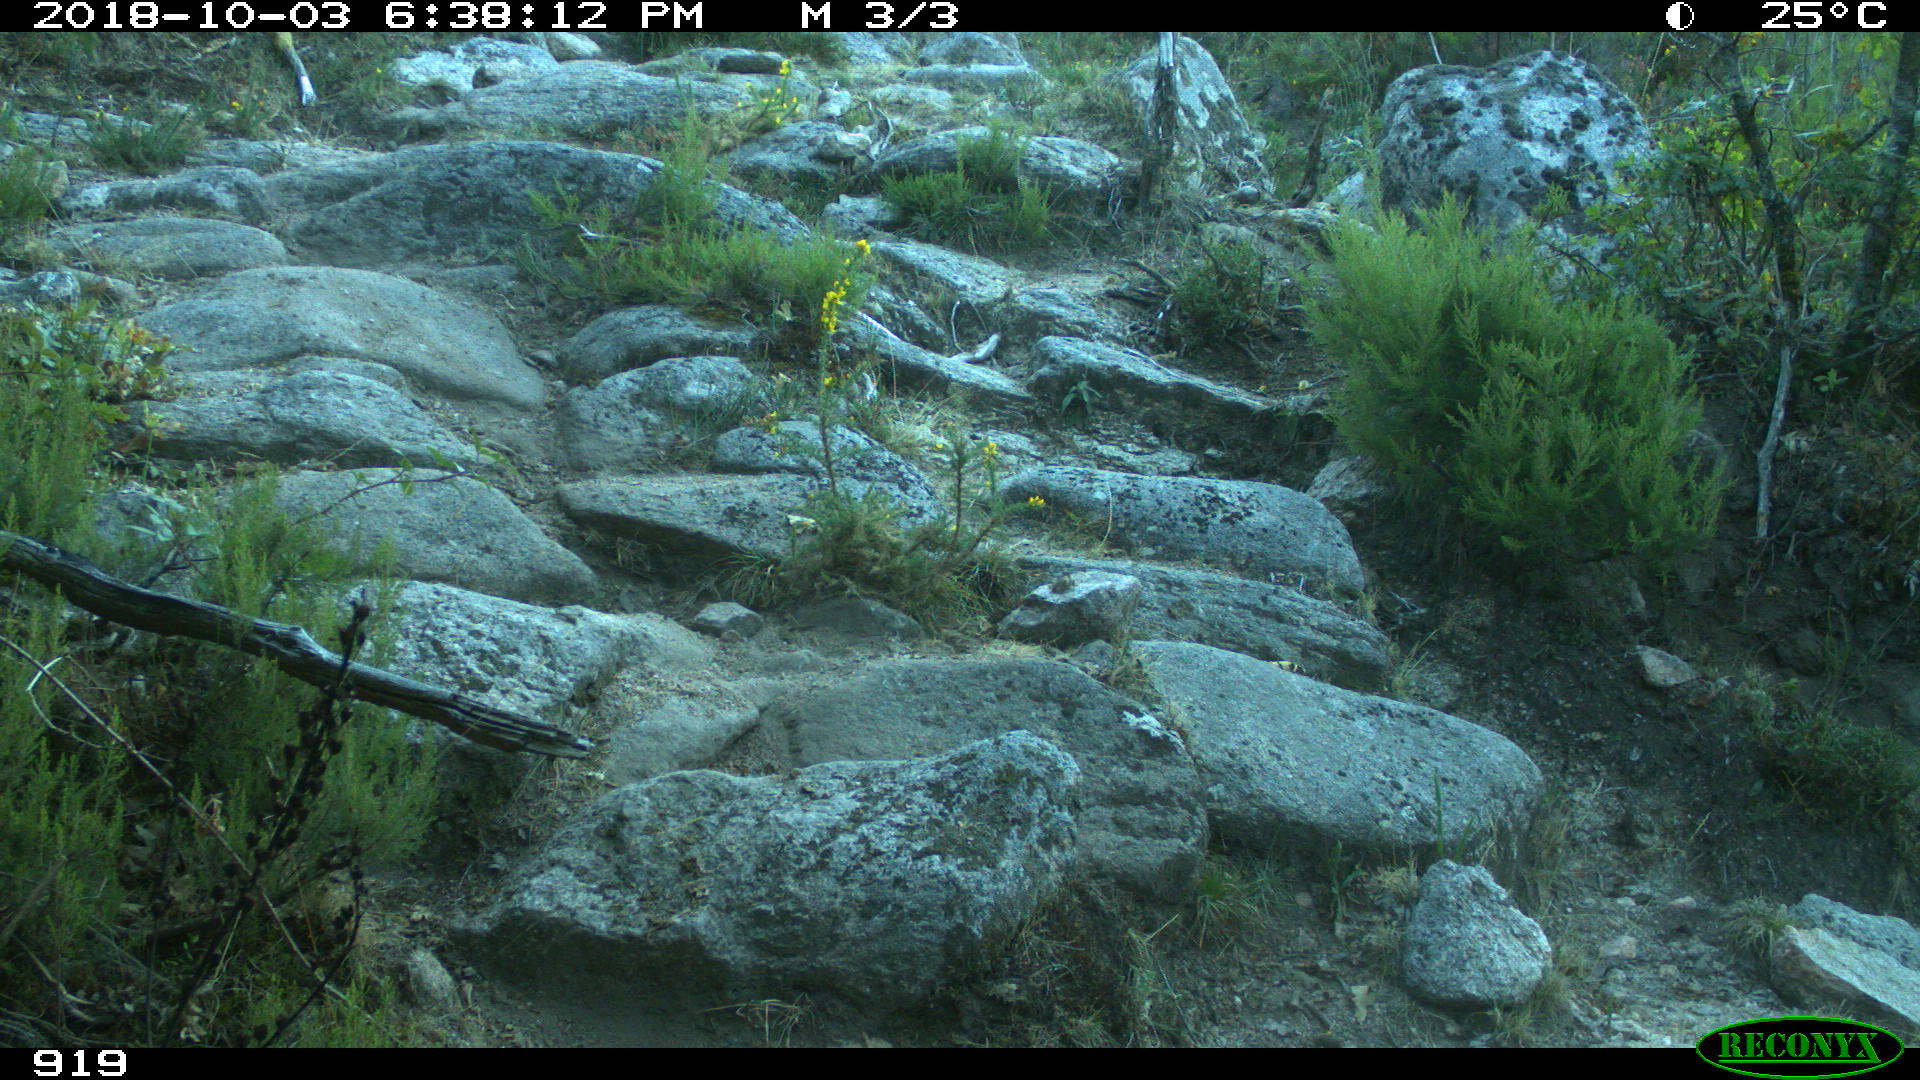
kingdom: Animalia
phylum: Chordata
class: Mammalia
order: Artiodactyla
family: Bovidae
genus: Bos
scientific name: Bos taurus
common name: Domesticated cattle
